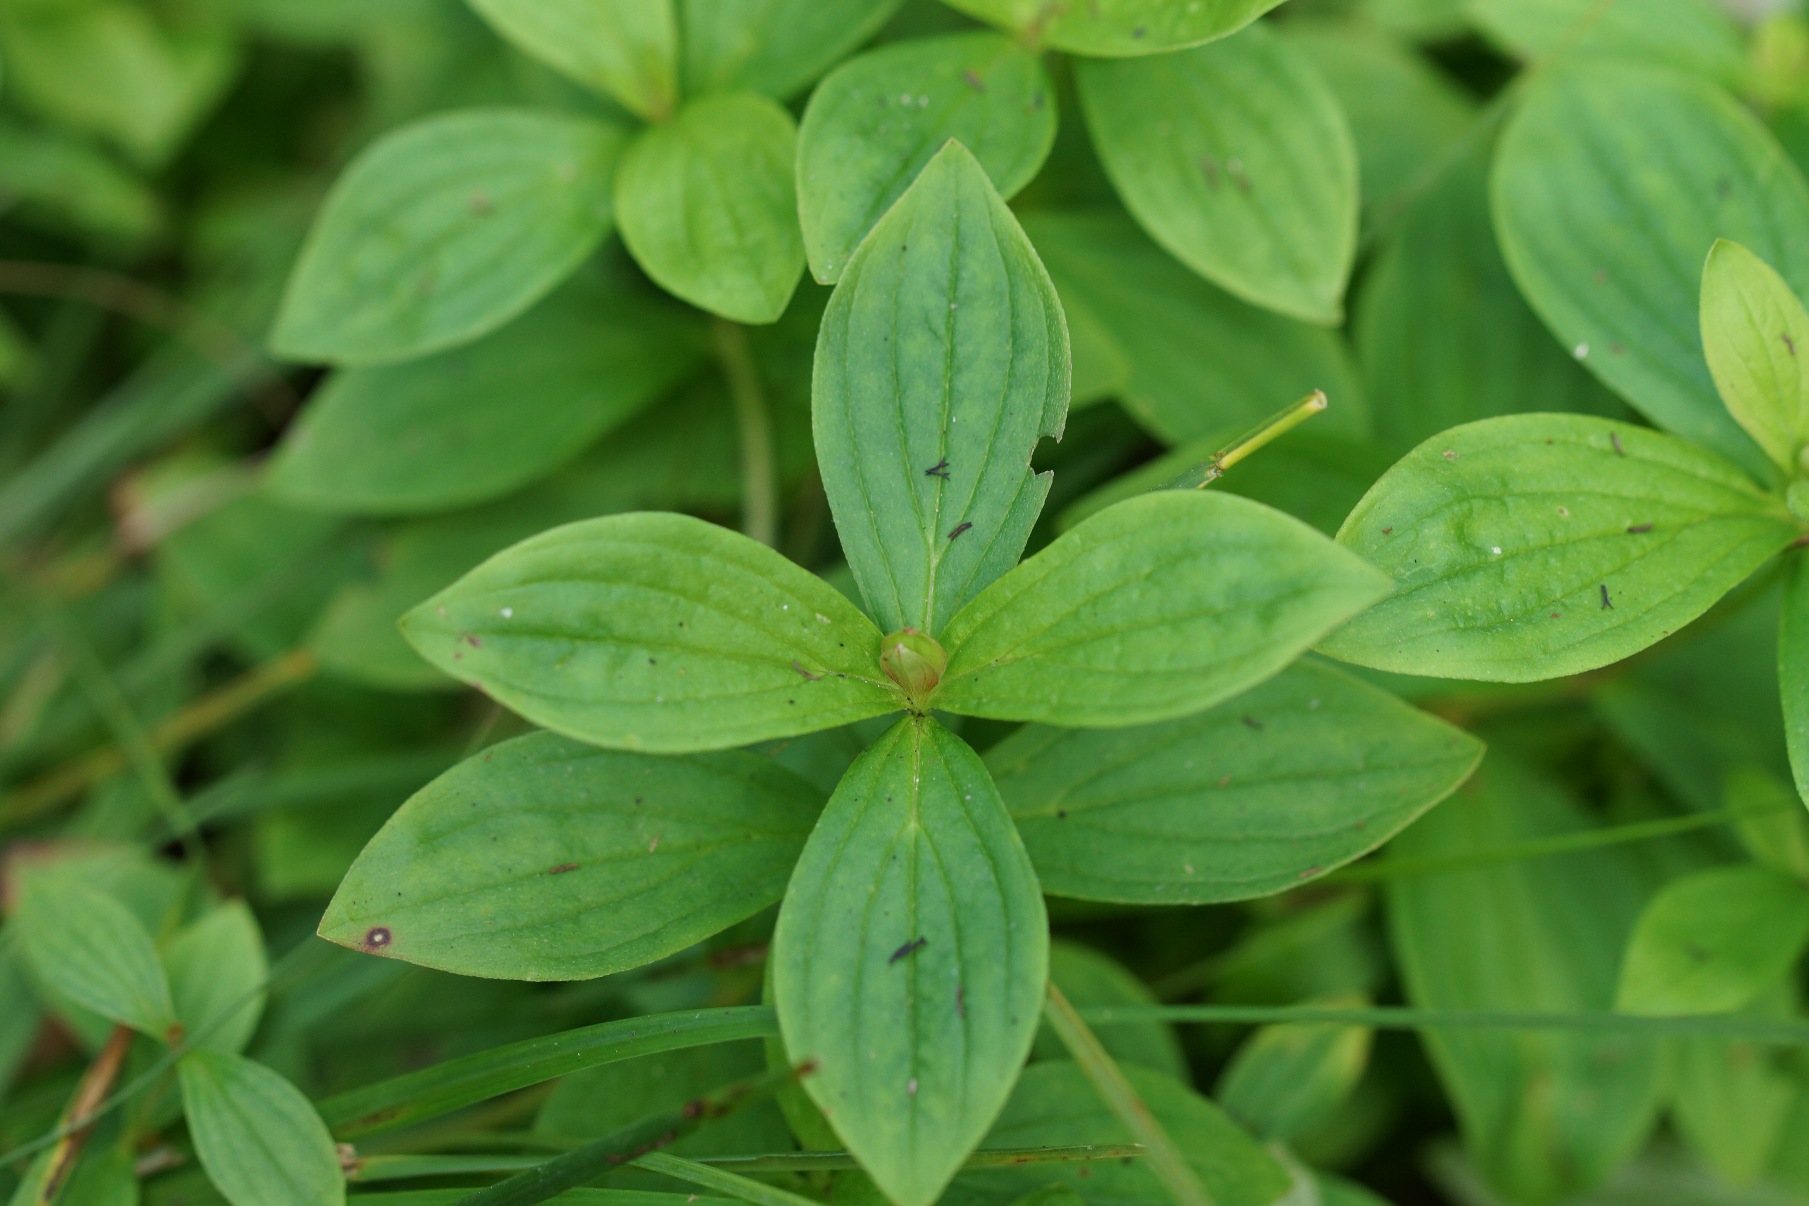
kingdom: Plantae
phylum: Tracheophyta
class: Magnoliopsida
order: Cornales
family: Cornaceae
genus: Cornus
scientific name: Cornus suecica
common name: Hønsebær
